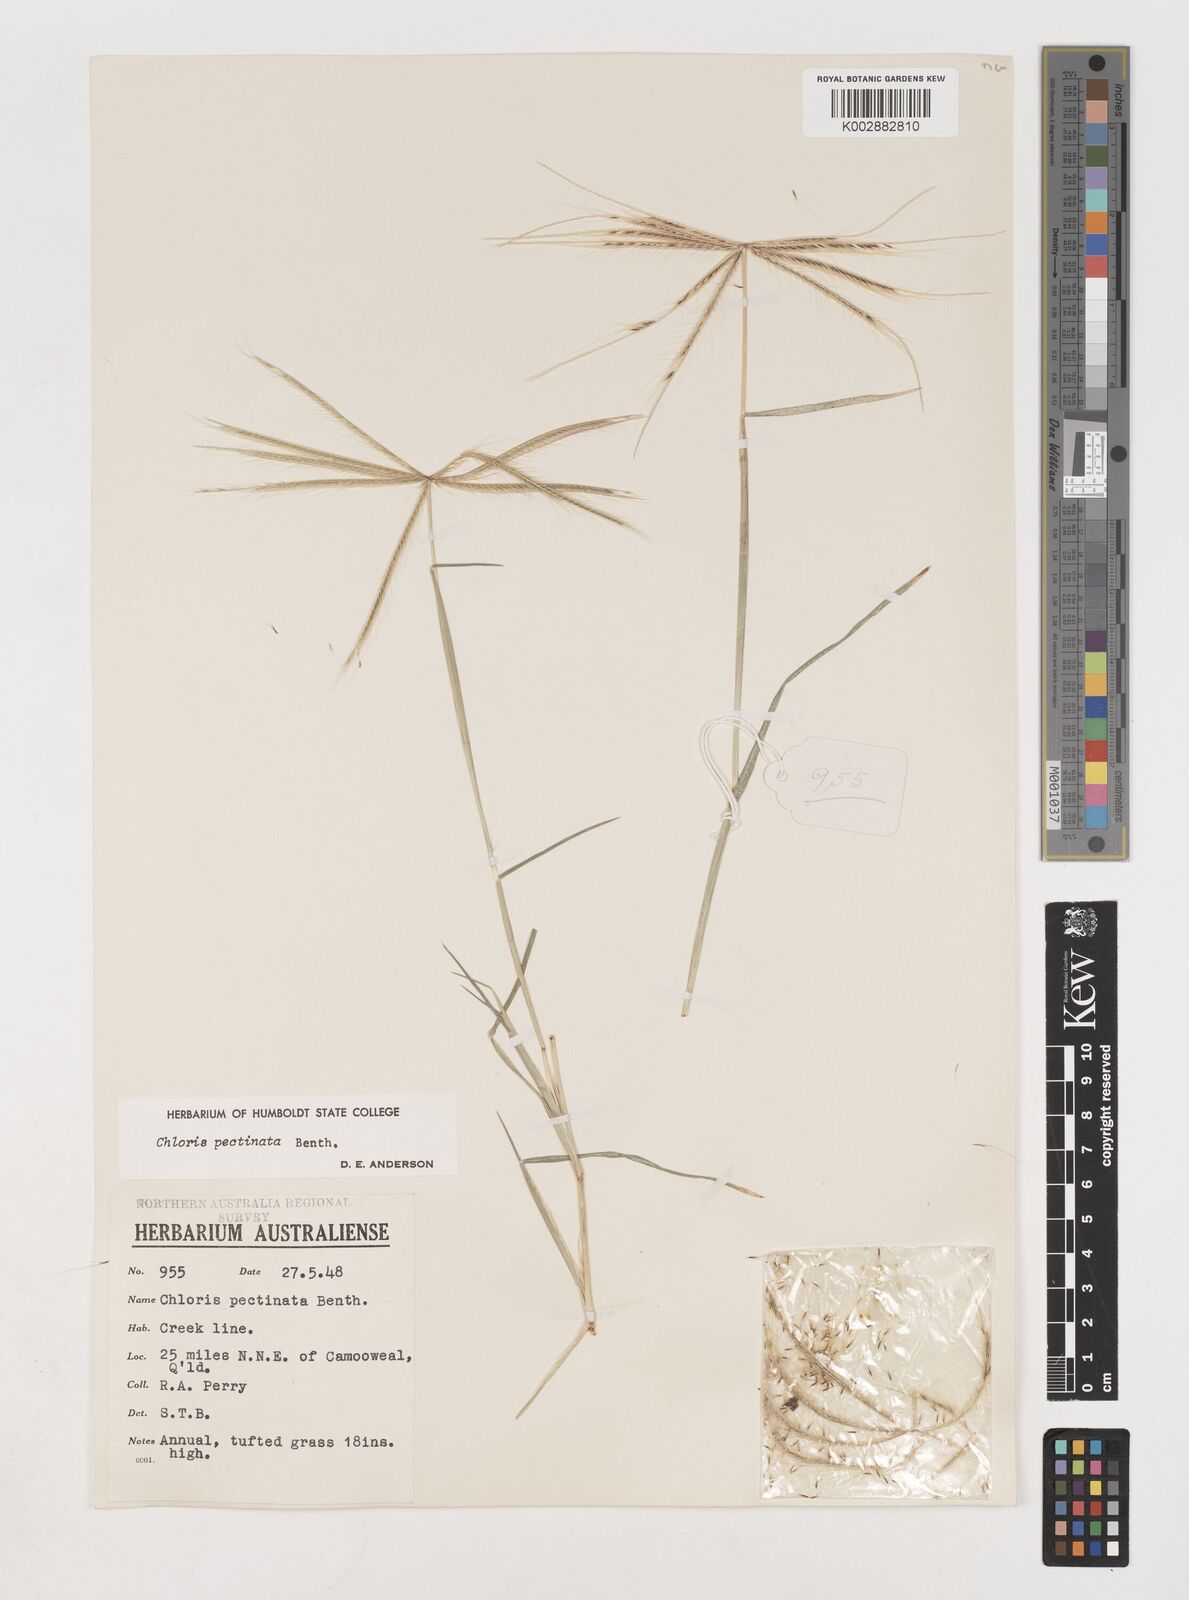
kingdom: Plantae
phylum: Tracheophyta
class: Liliopsida
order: Poales
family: Poaceae
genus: Chloris
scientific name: Chloris pectinata
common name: Comb windmill grass
